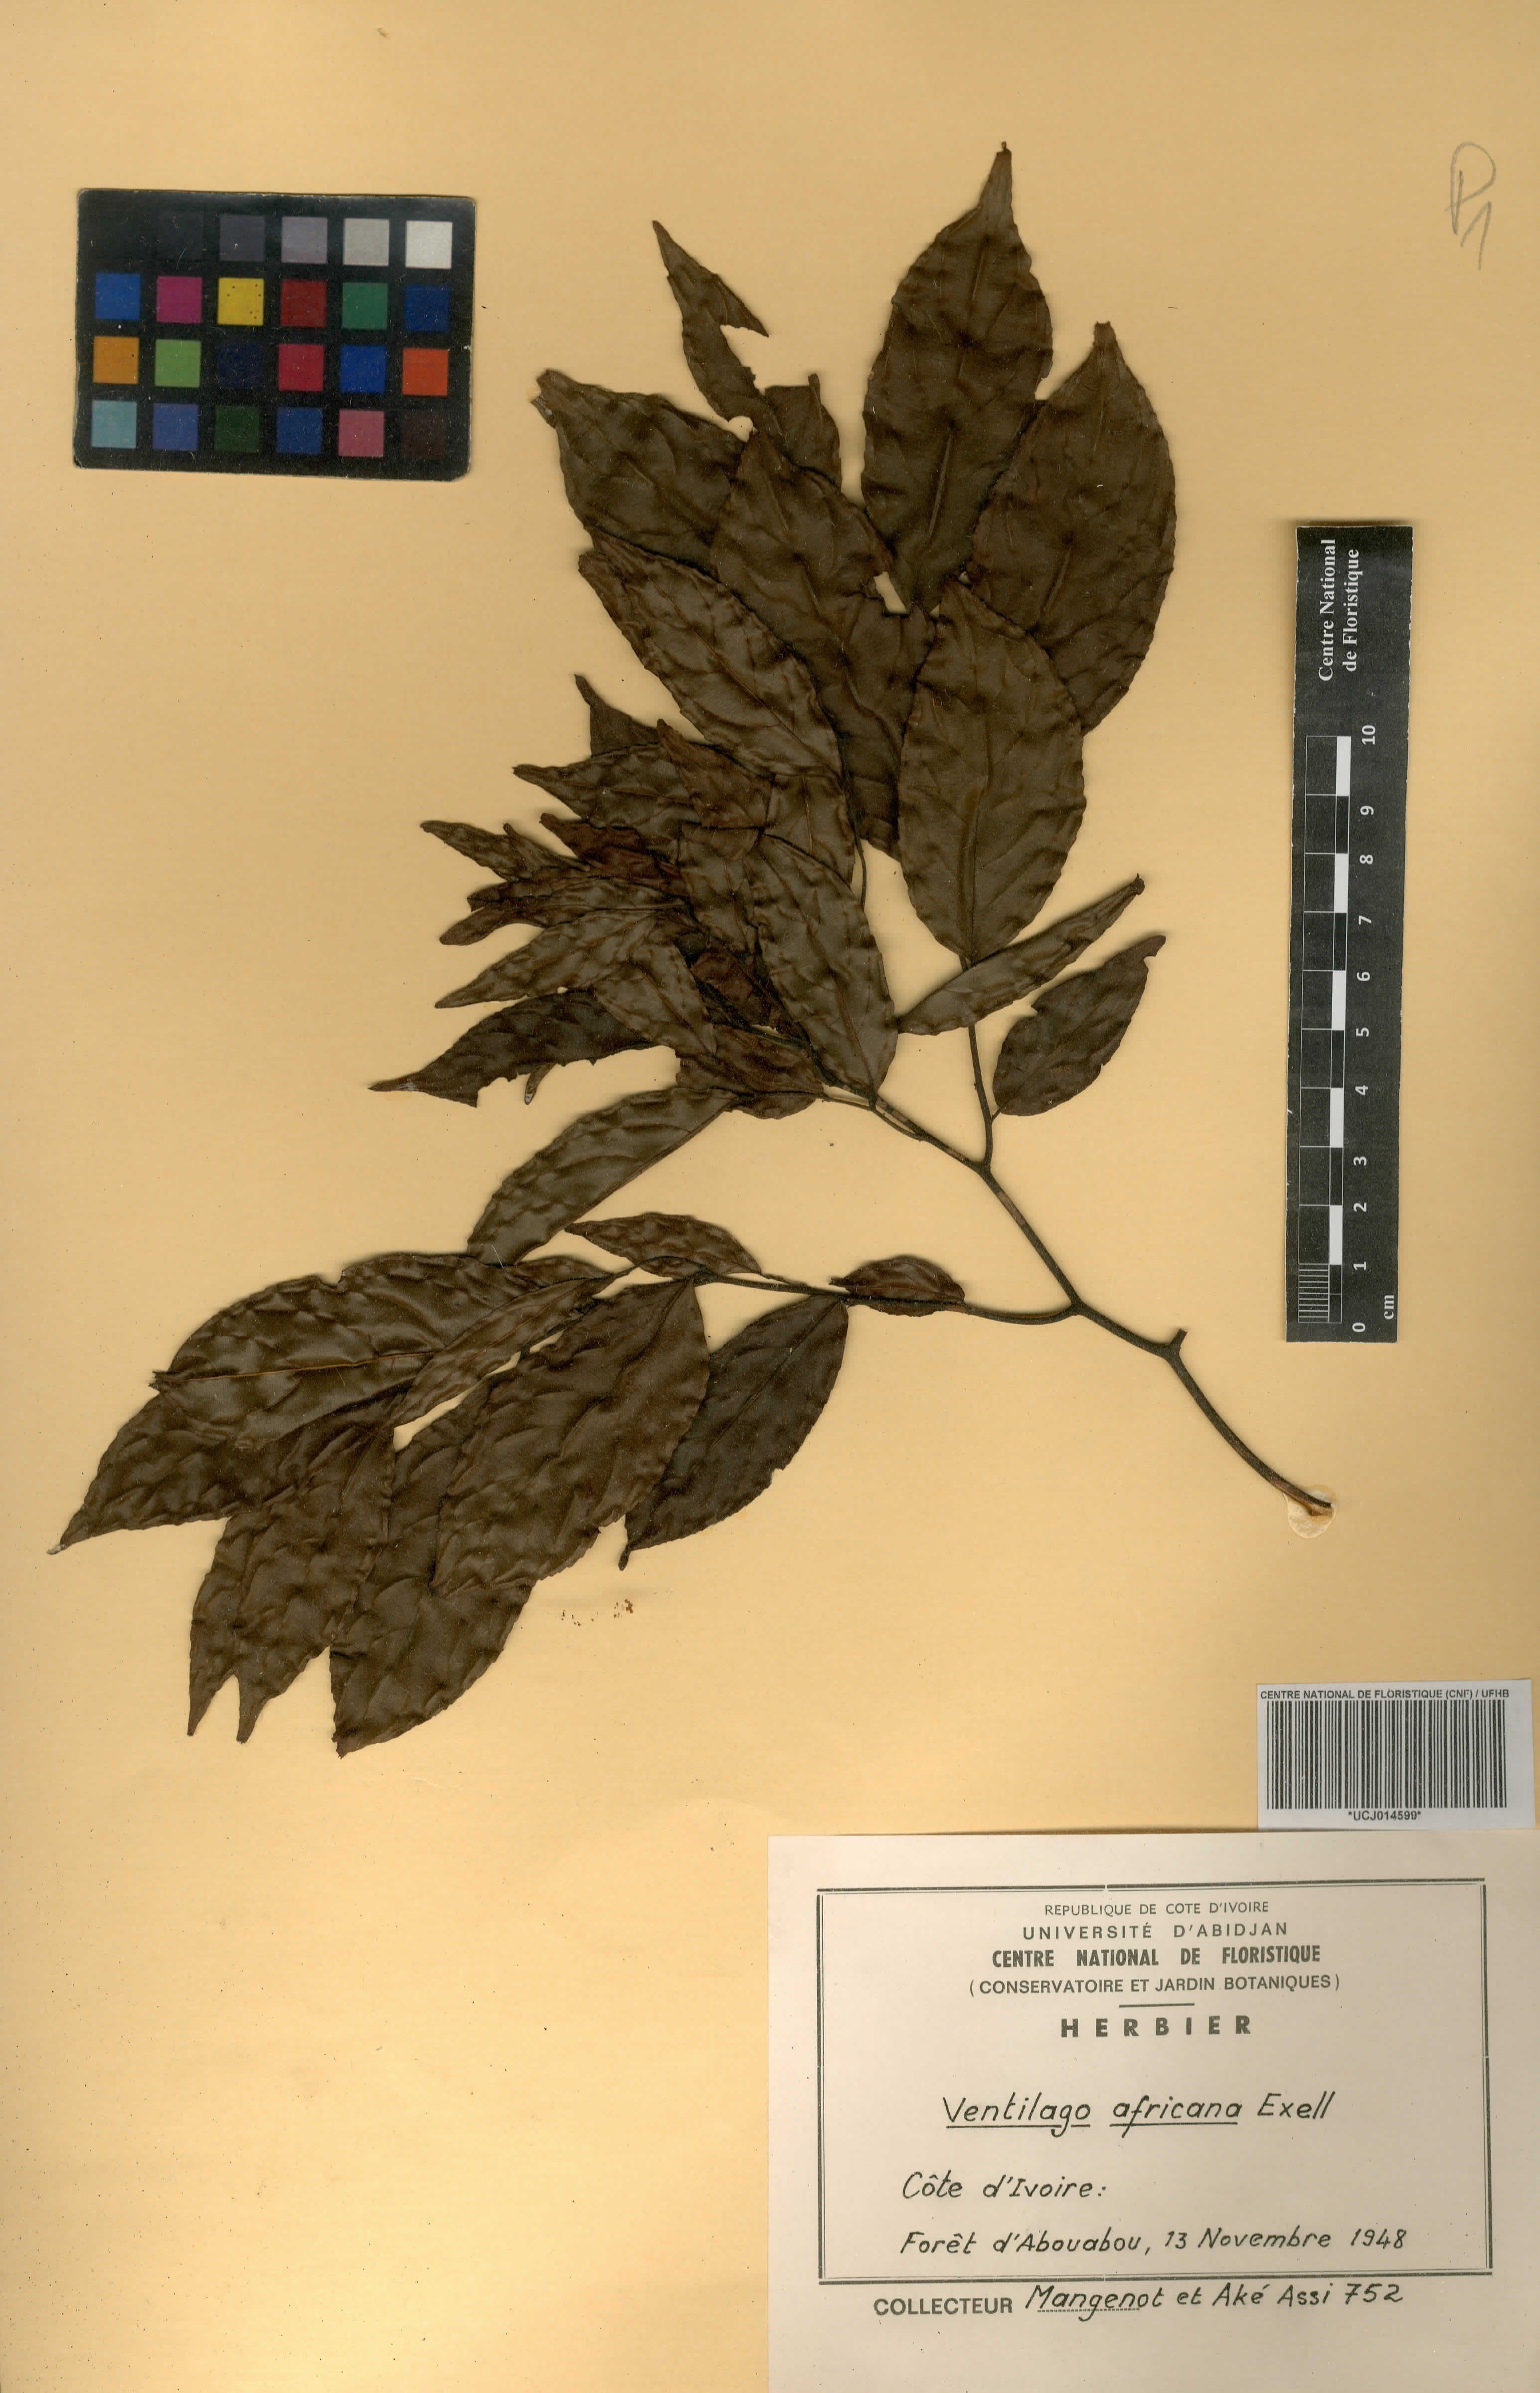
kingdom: Plantae
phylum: Tracheophyta
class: Magnoliopsida
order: Rosales
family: Rhamnaceae
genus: Ventilago
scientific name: Ventilago africana
